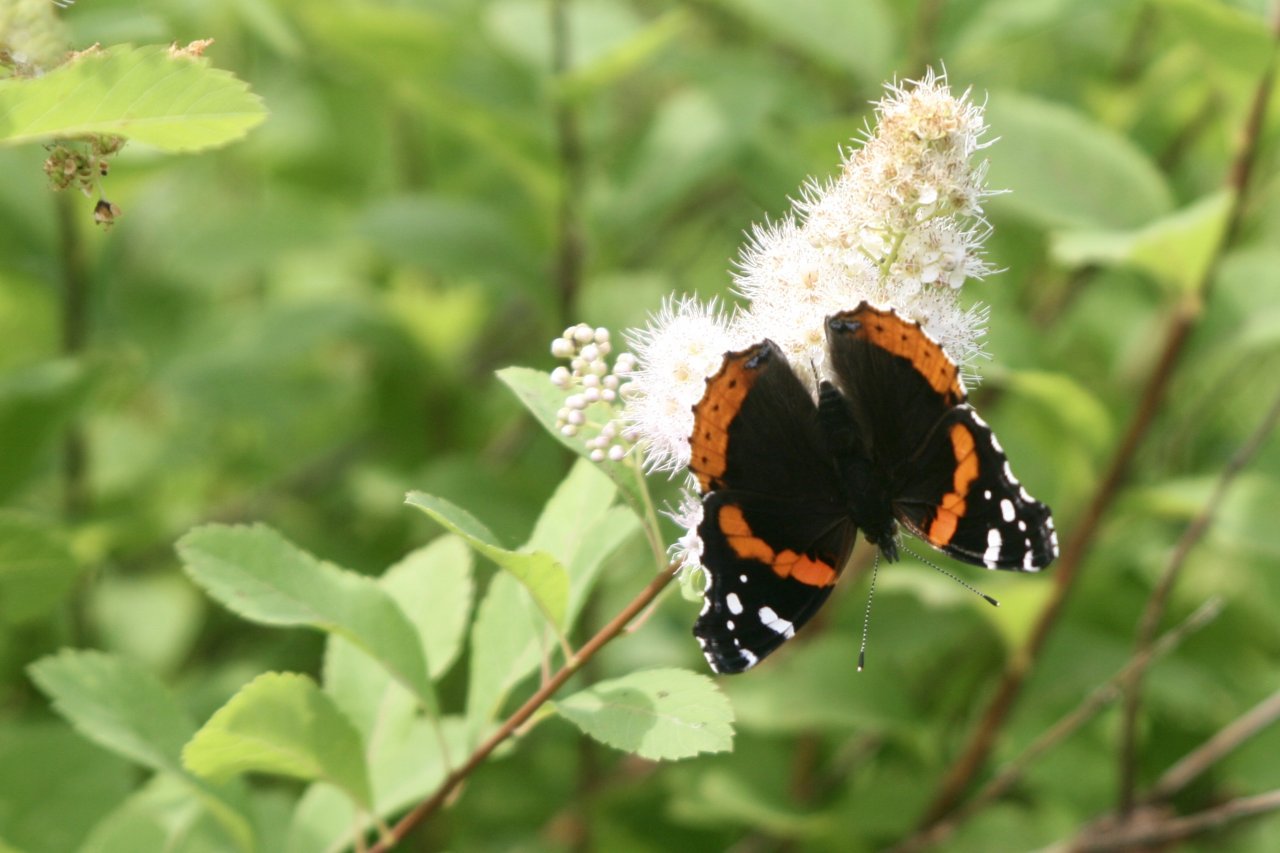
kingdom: Animalia
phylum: Arthropoda
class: Insecta
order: Lepidoptera
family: Nymphalidae
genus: Vanessa
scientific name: Vanessa atalanta
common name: Red Admiral
